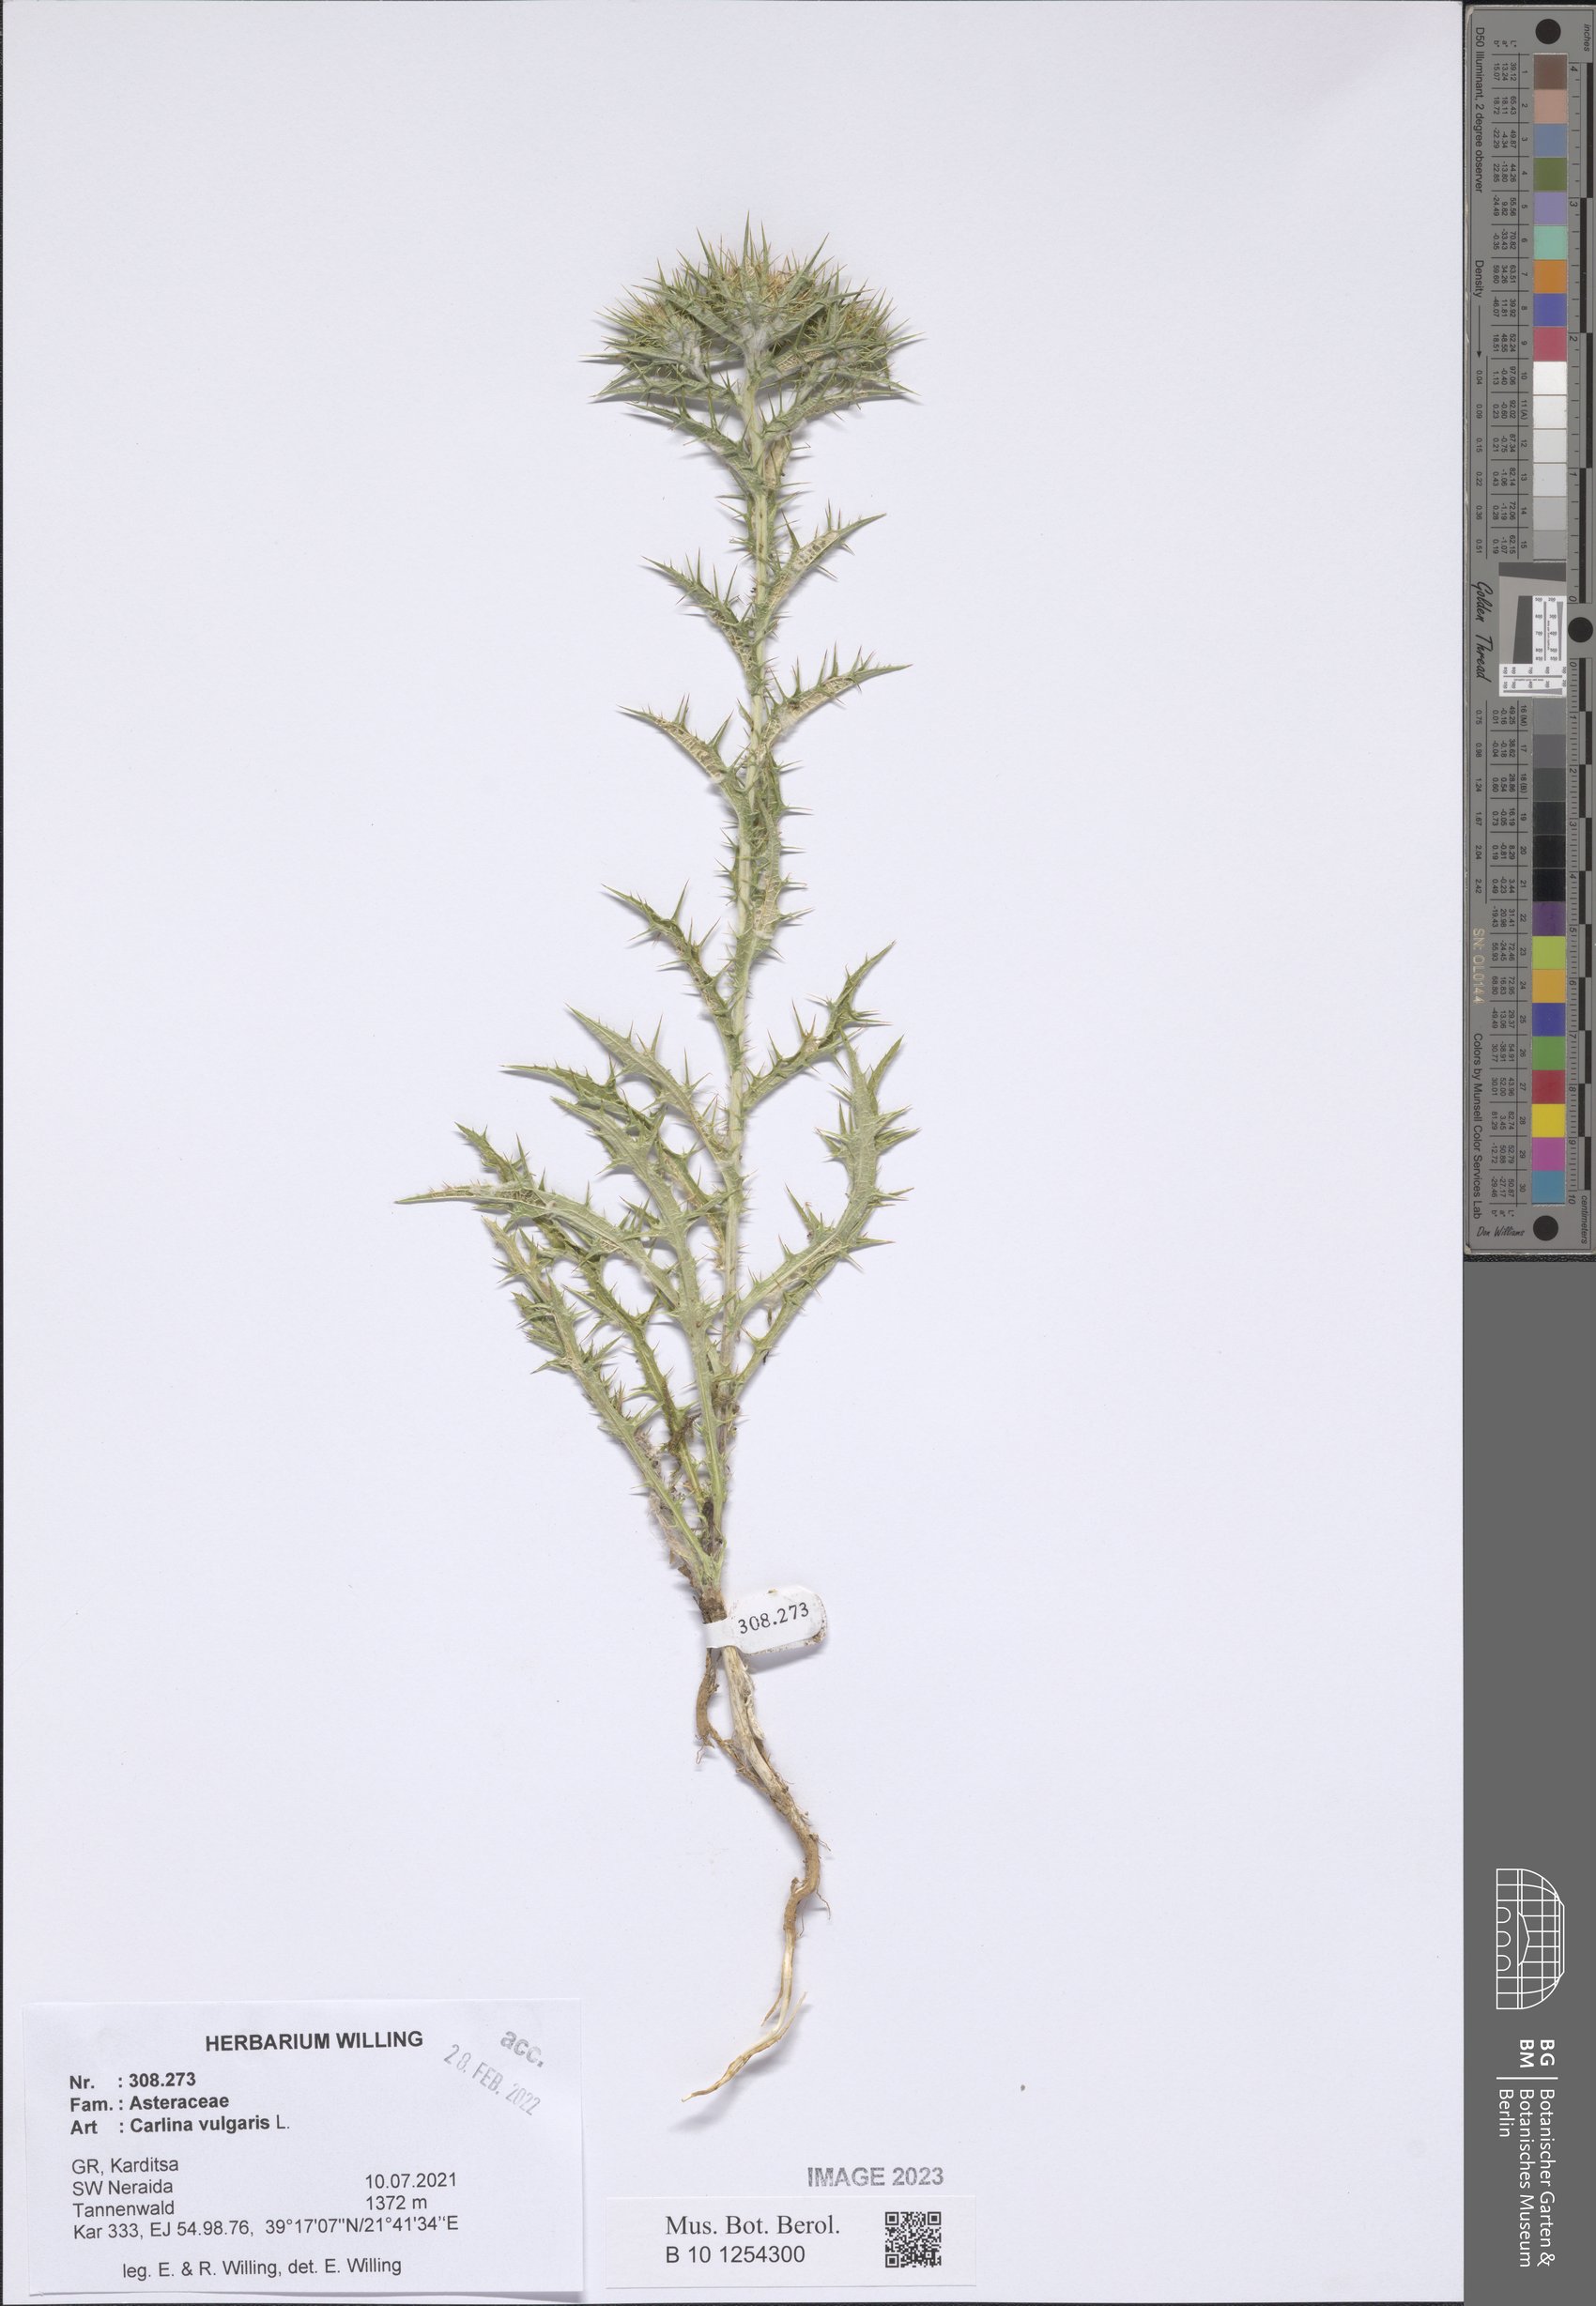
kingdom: Plantae
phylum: Tracheophyta
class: Magnoliopsida
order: Asterales
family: Asteraceae
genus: Carlina
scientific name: Carlina vulgaris
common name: Carline thistle
